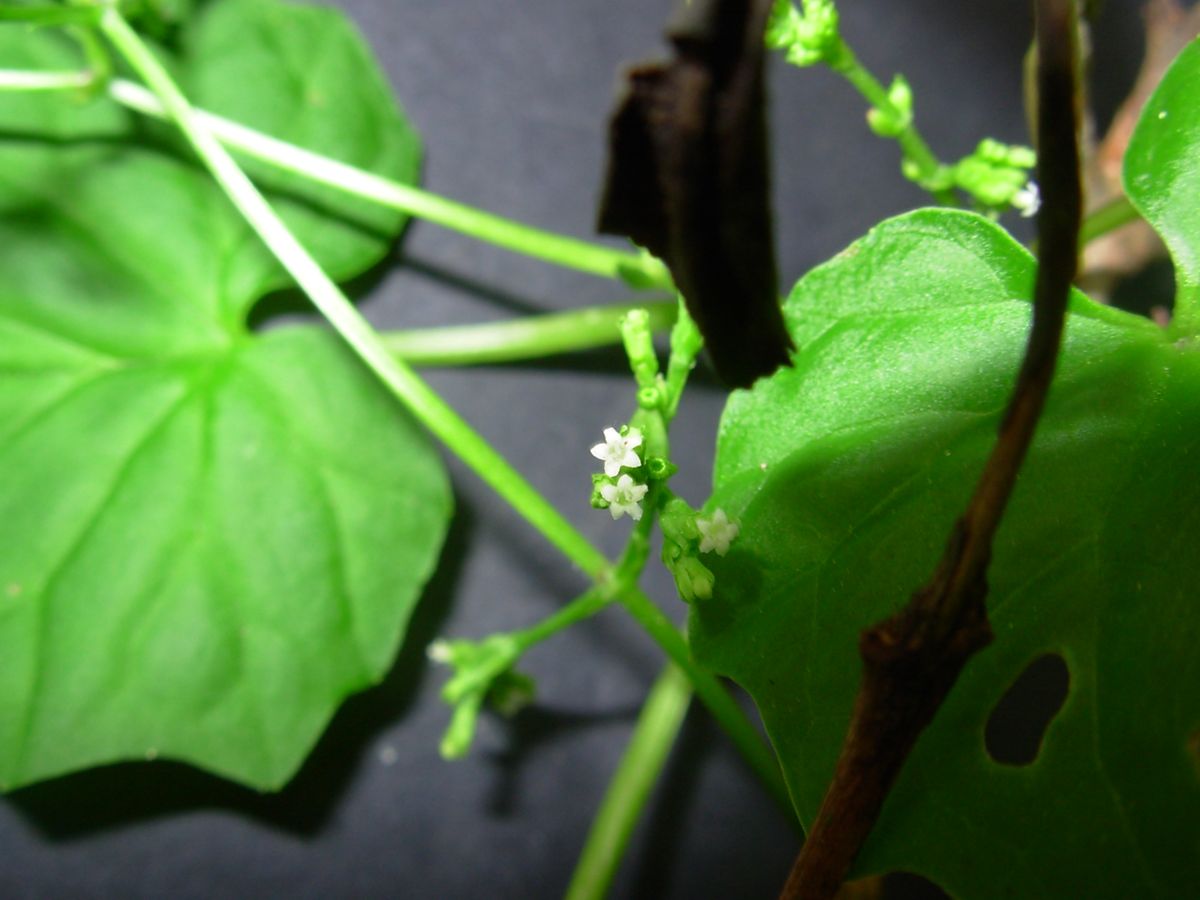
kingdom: Plantae
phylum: Tracheophyta
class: Magnoliopsida
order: Dipsacales
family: Caprifoliaceae
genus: Valeriana
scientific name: Valeriana candolleana
